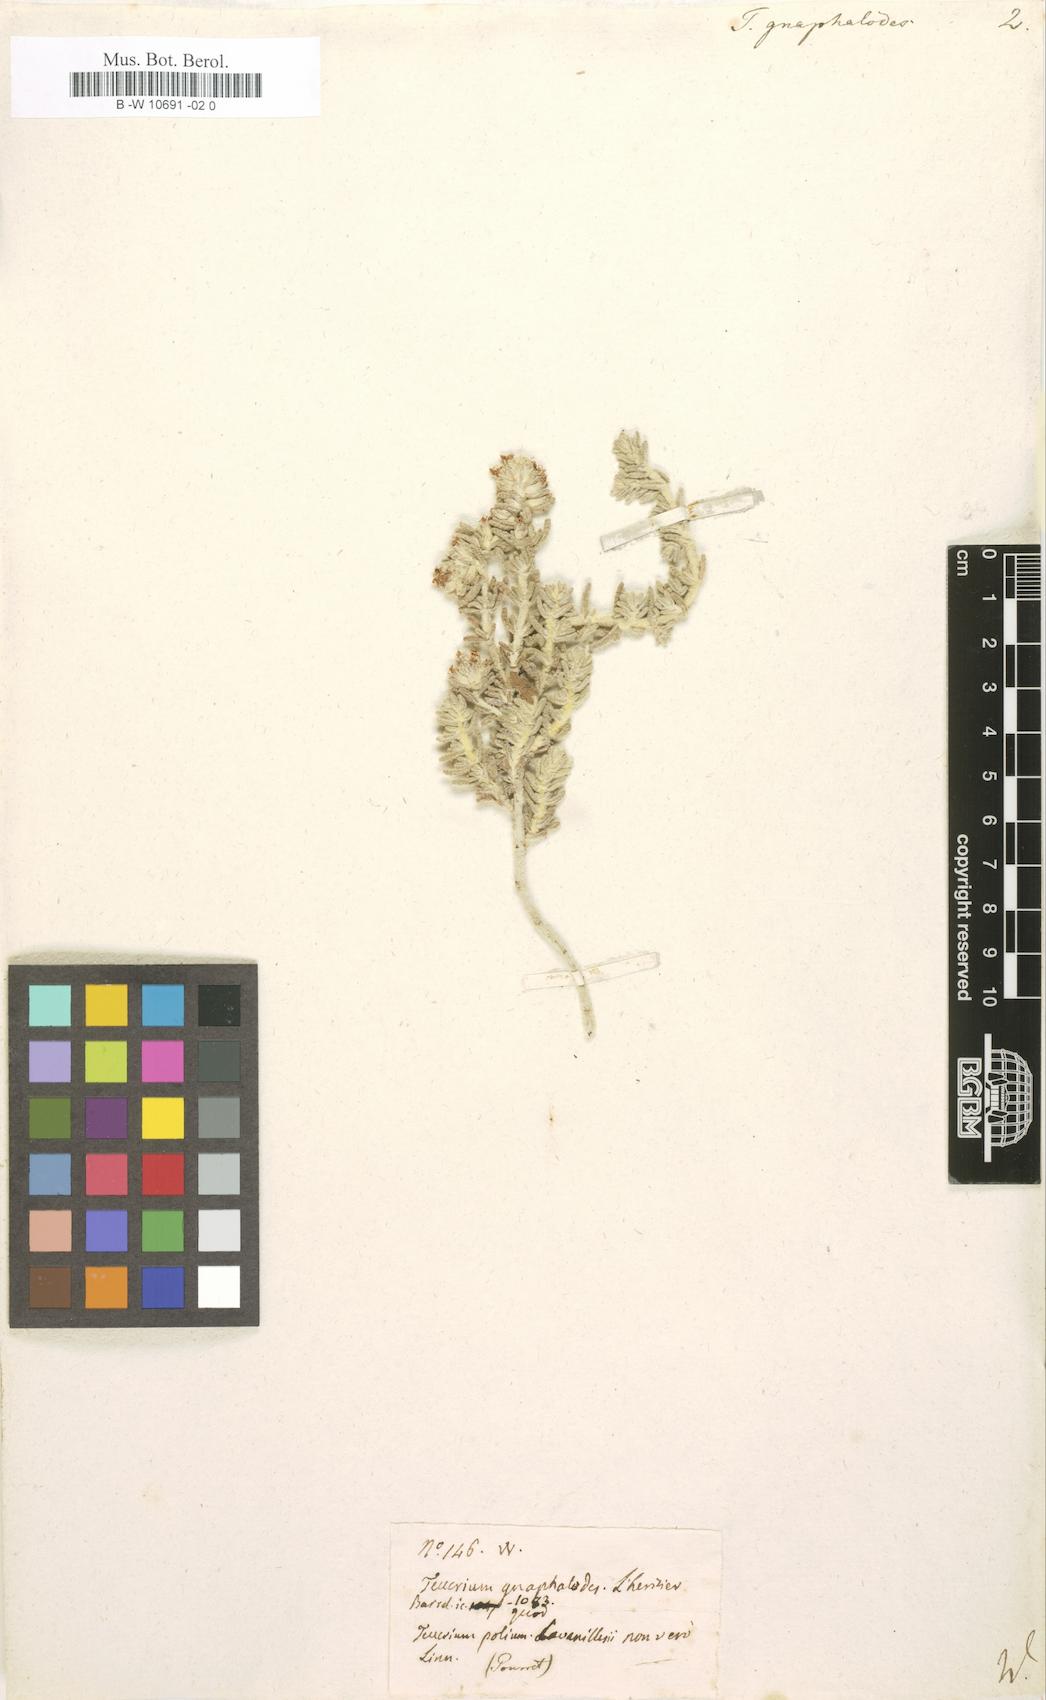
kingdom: Plantae
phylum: Tracheophyta
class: Magnoliopsida
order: Lamiales
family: Lamiaceae
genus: Teucrium
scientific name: Teucrium gnaphalodes
